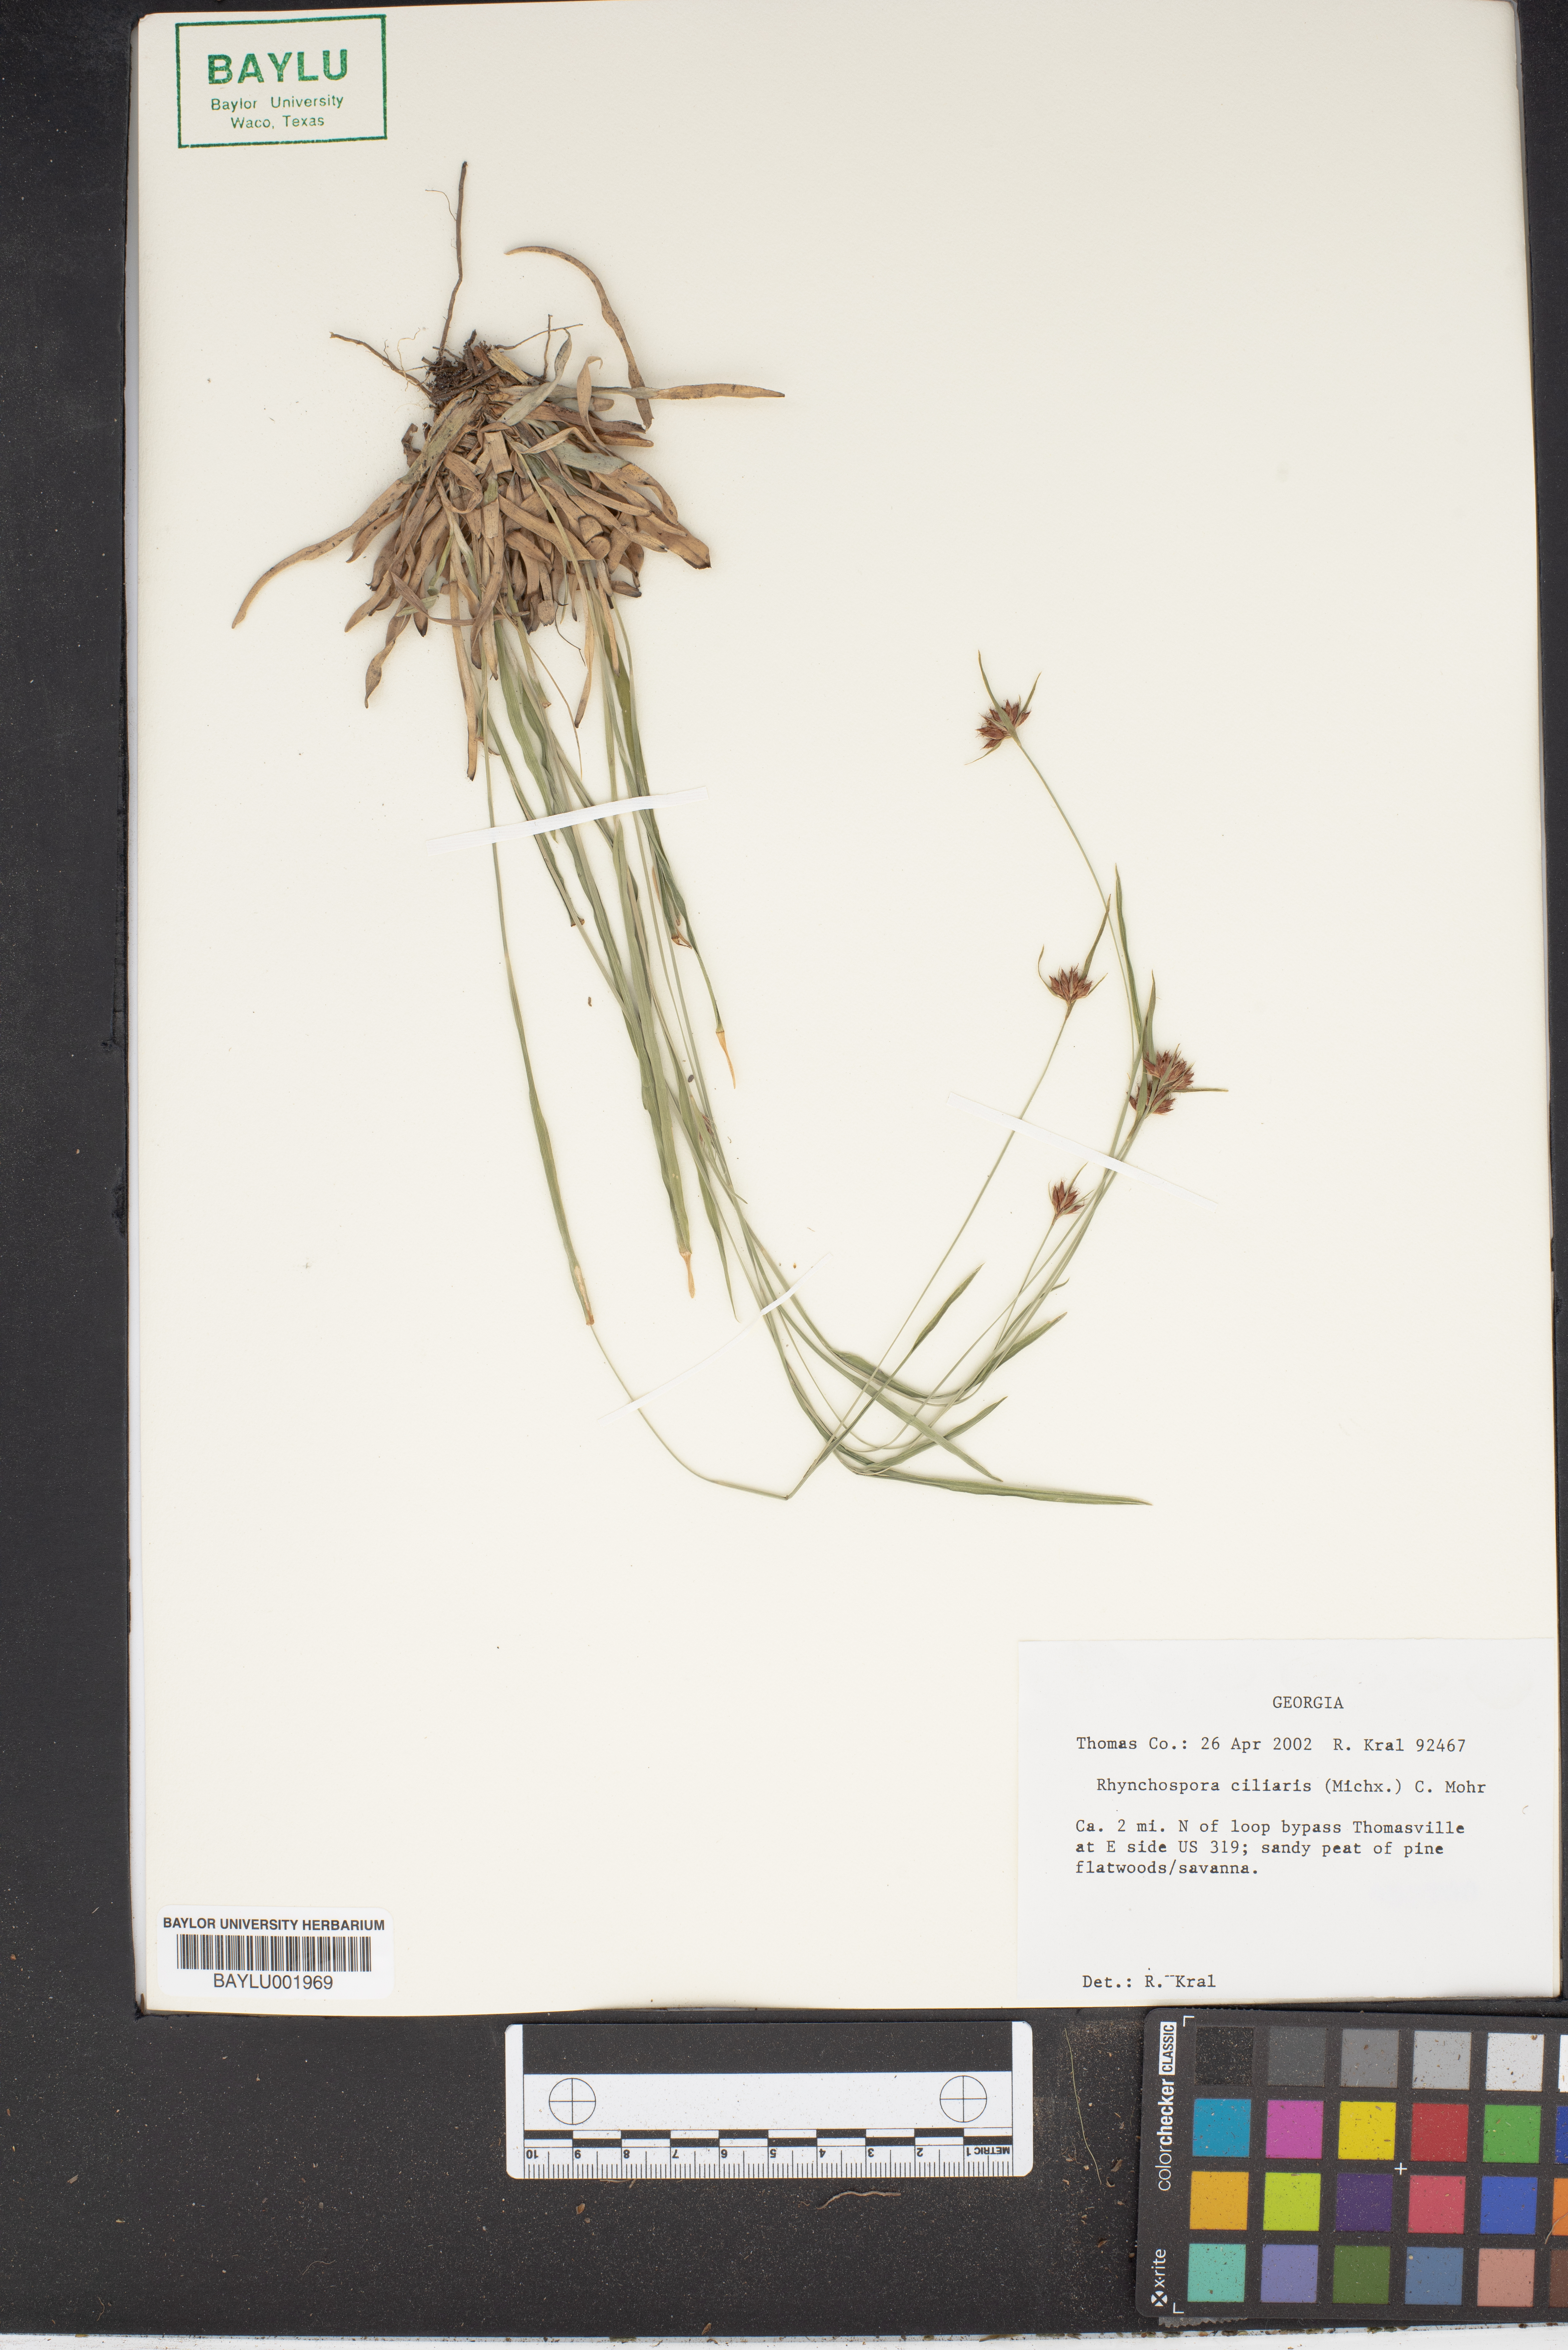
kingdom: Plantae
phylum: Tracheophyta
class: Liliopsida
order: Poales
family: Cyperaceae
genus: Rhynchospora
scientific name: Rhynchospora ciliaris
